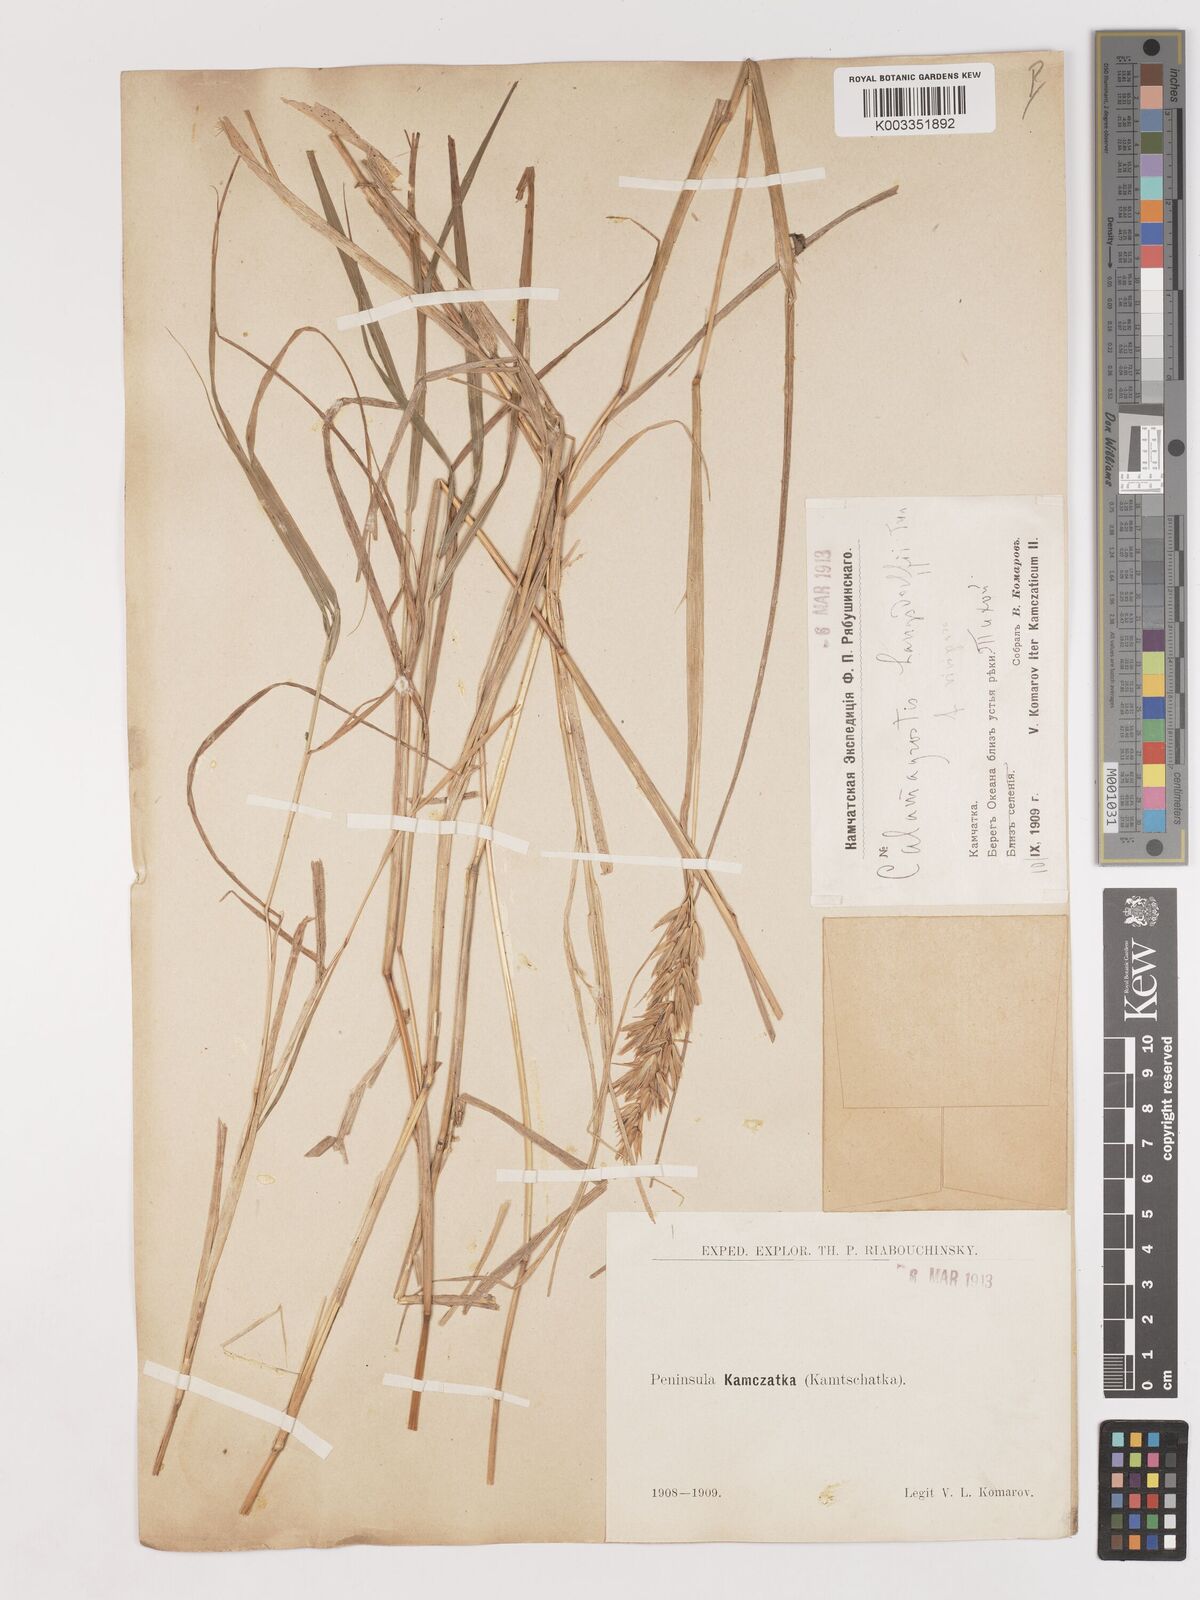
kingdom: Plantae
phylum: Tracheophyta
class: Liliopsida
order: Poales
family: Poaceae
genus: Calamagrostis
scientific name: Calamagrostis purpurea
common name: Scandinavian small-reed
